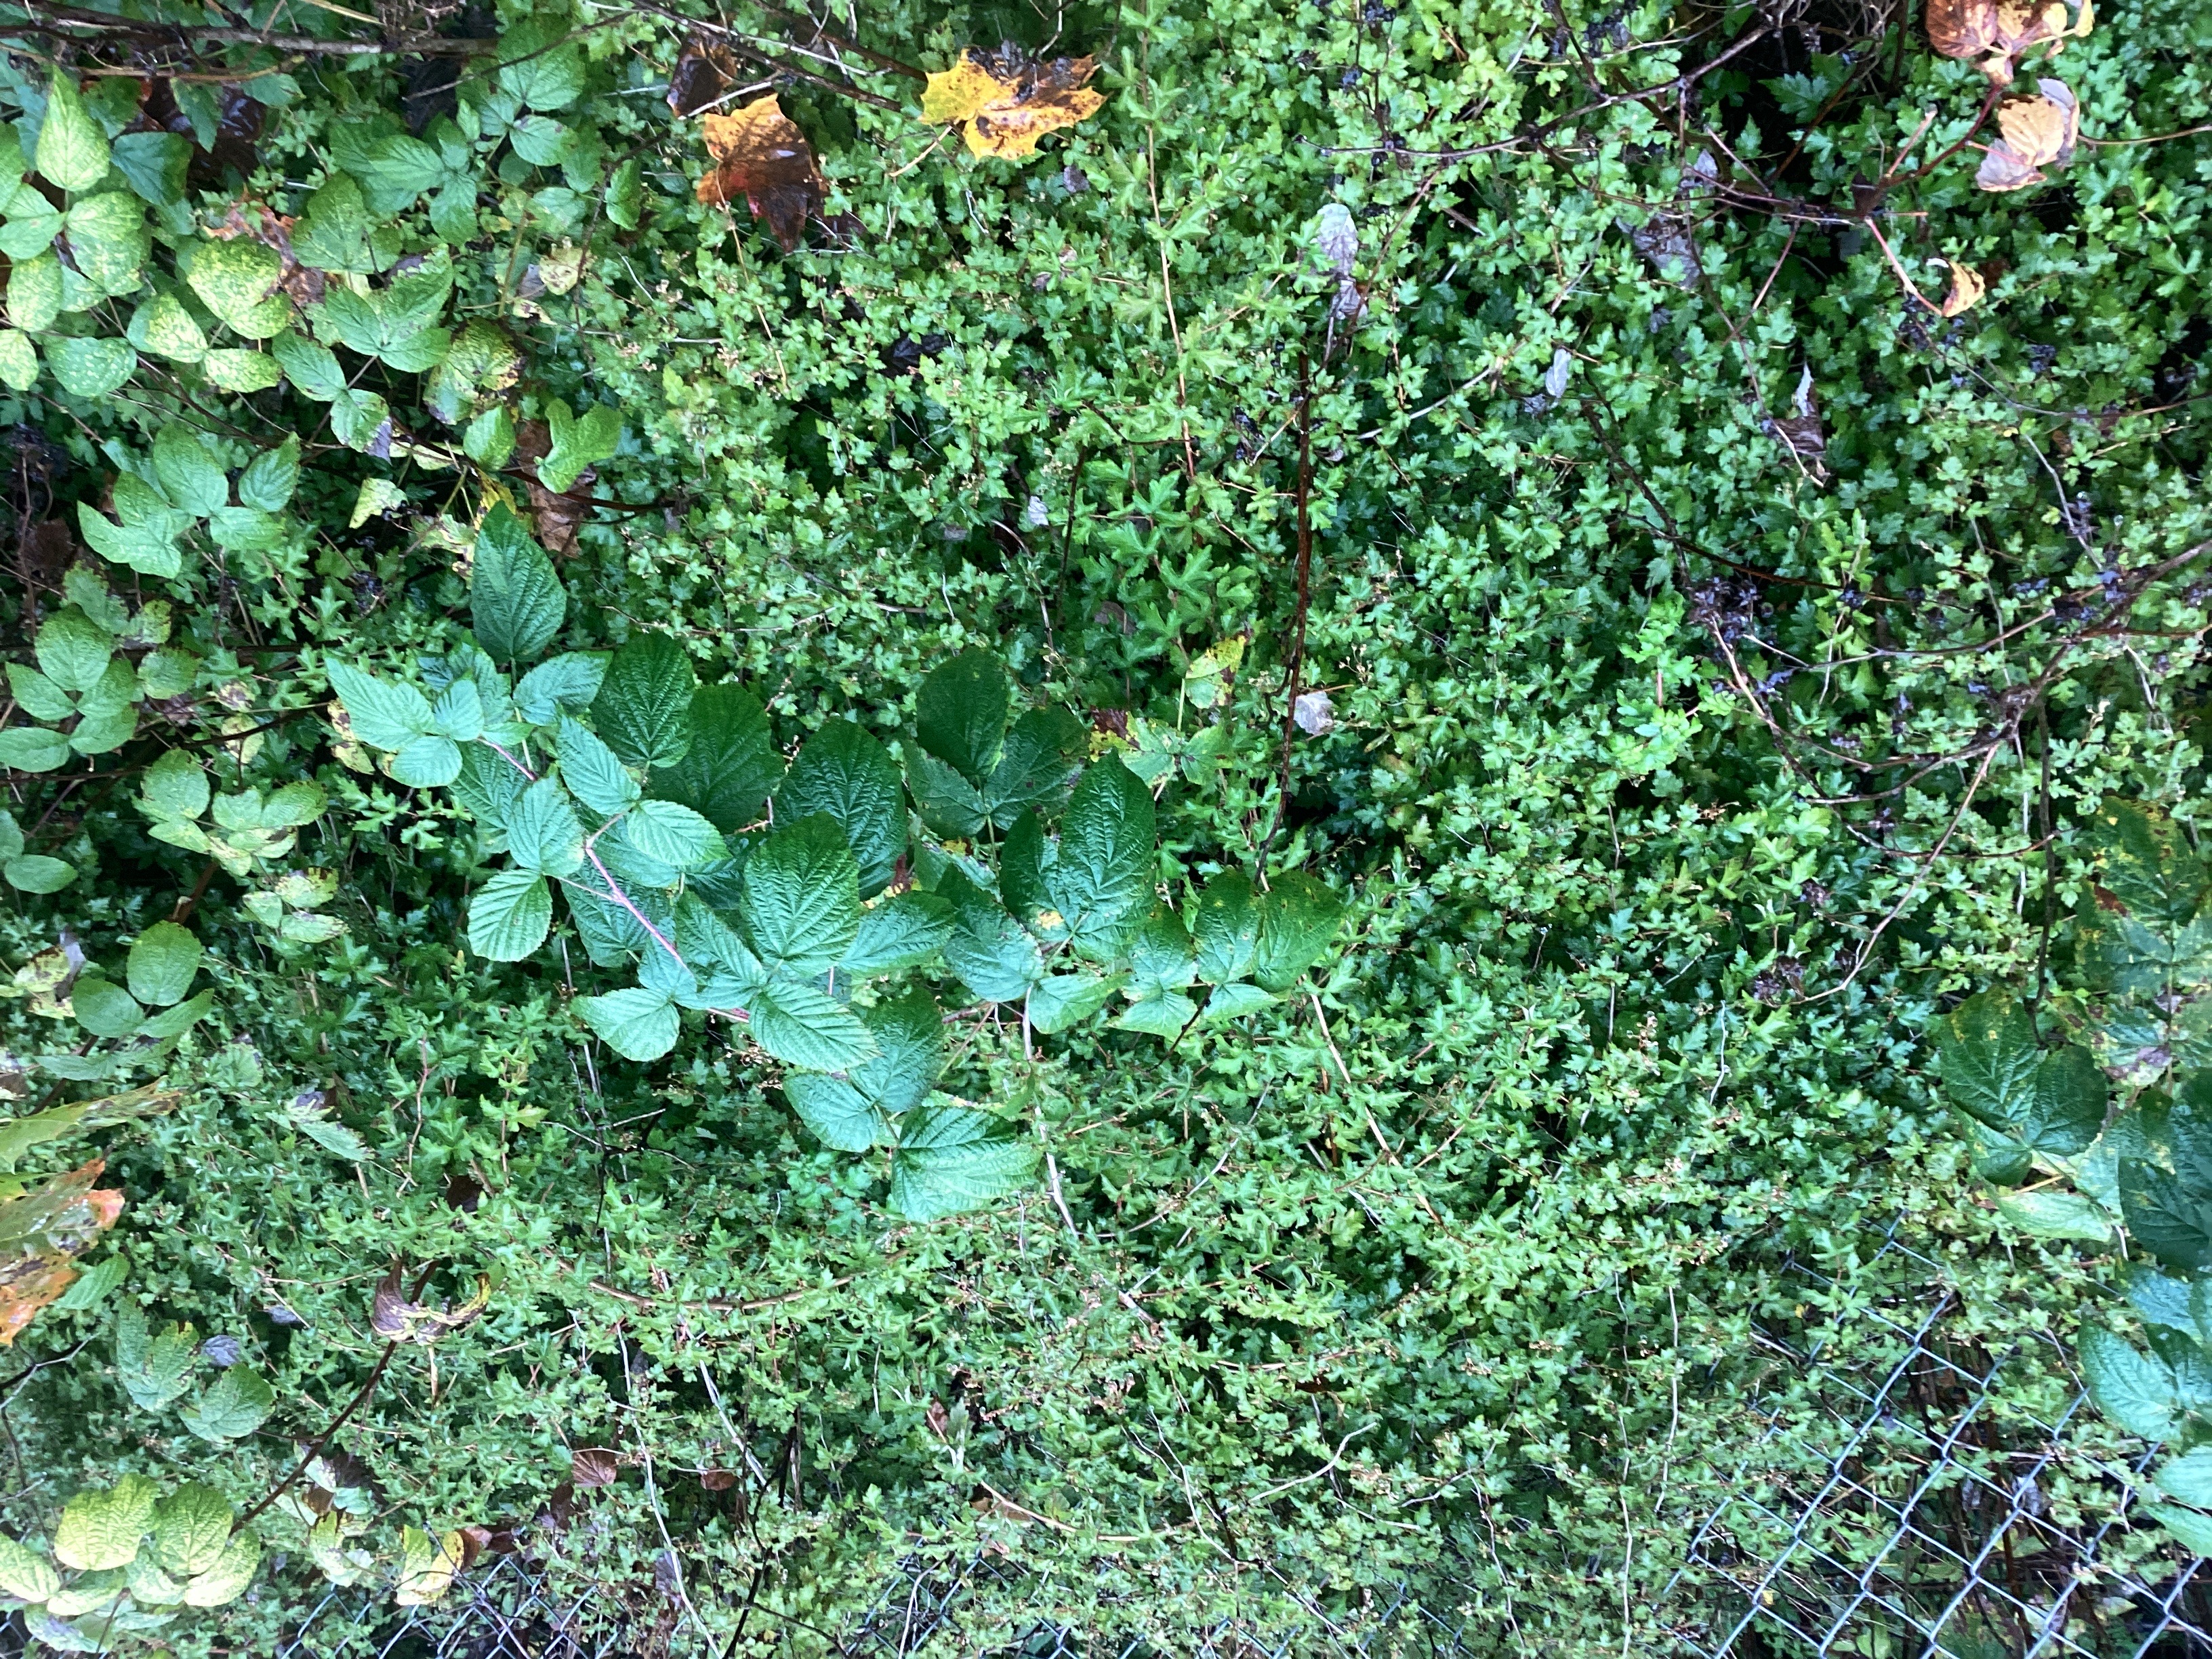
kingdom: Plantae
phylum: Tracheophyta
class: Magnoliopsida
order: Rosales
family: Rosaceae
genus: Neillia
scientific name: Neillia incisa
